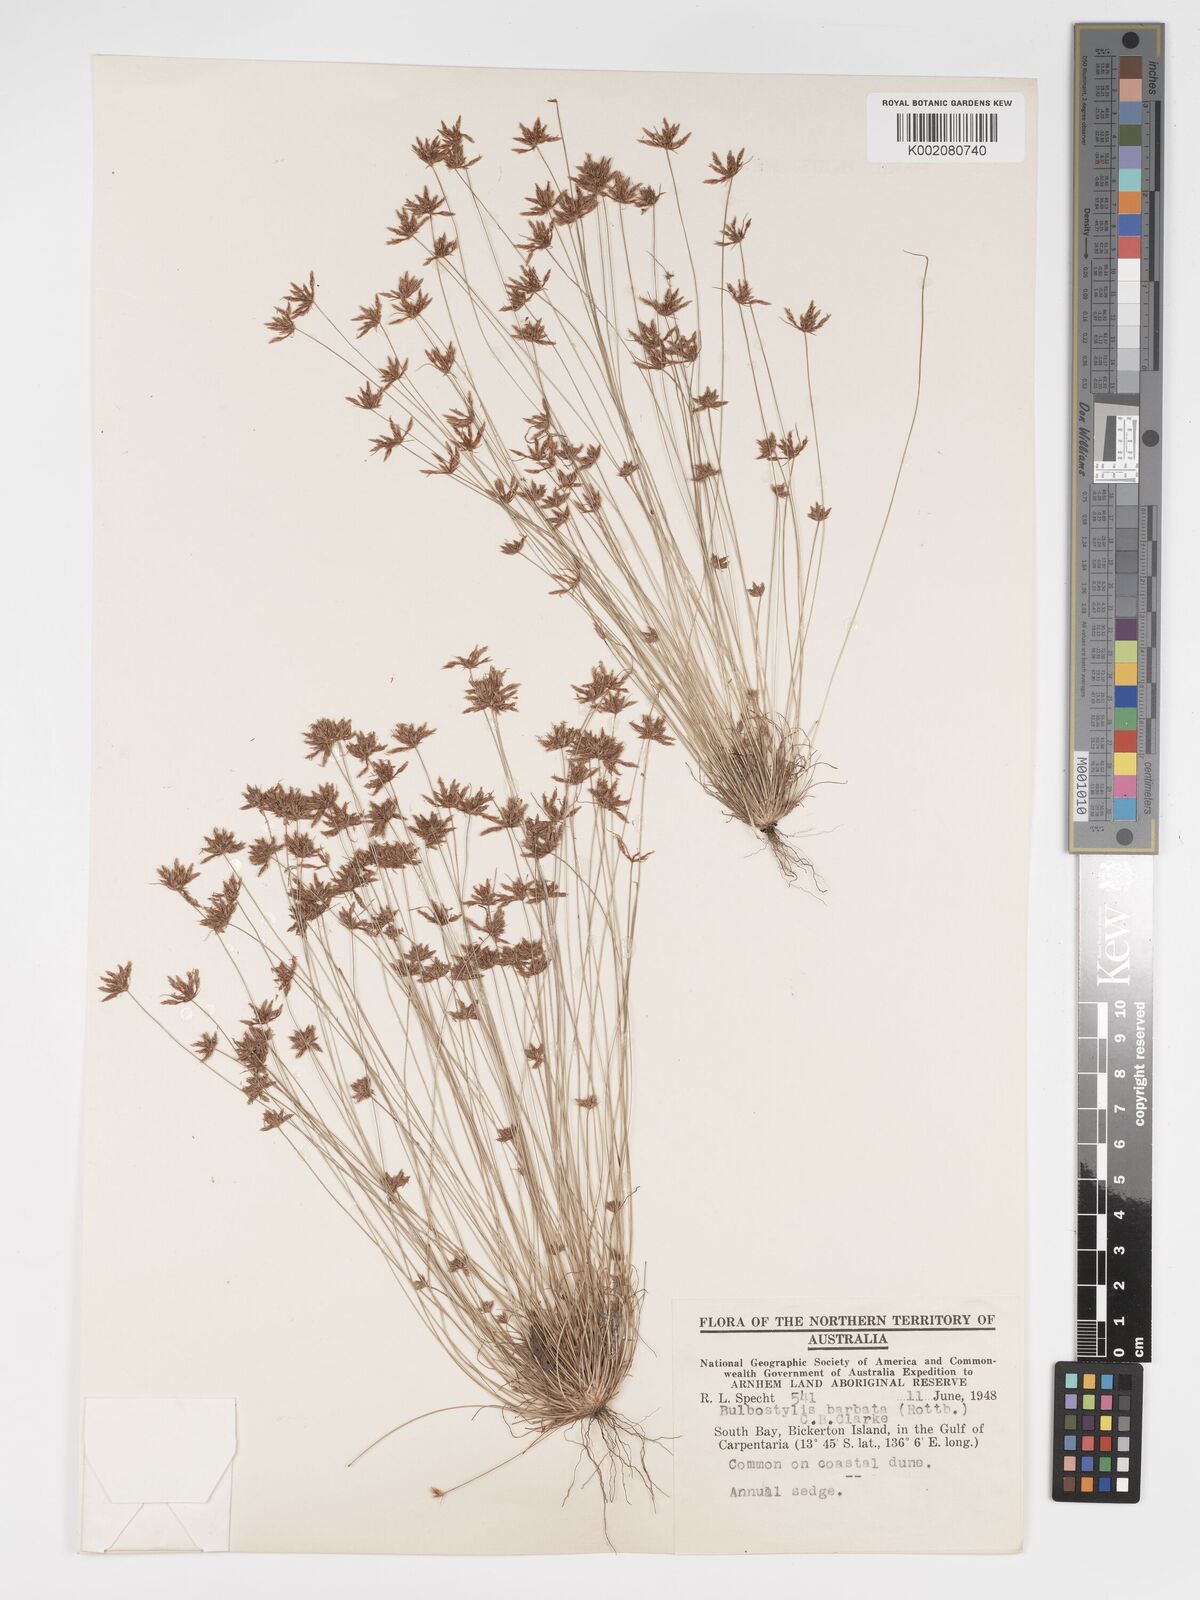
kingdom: Plantae
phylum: Tracheophyta
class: Liliopsida
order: Poales
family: Cyperaceae
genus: Bulbostylis
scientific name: Bulbostylis barbata
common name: Watergrass
